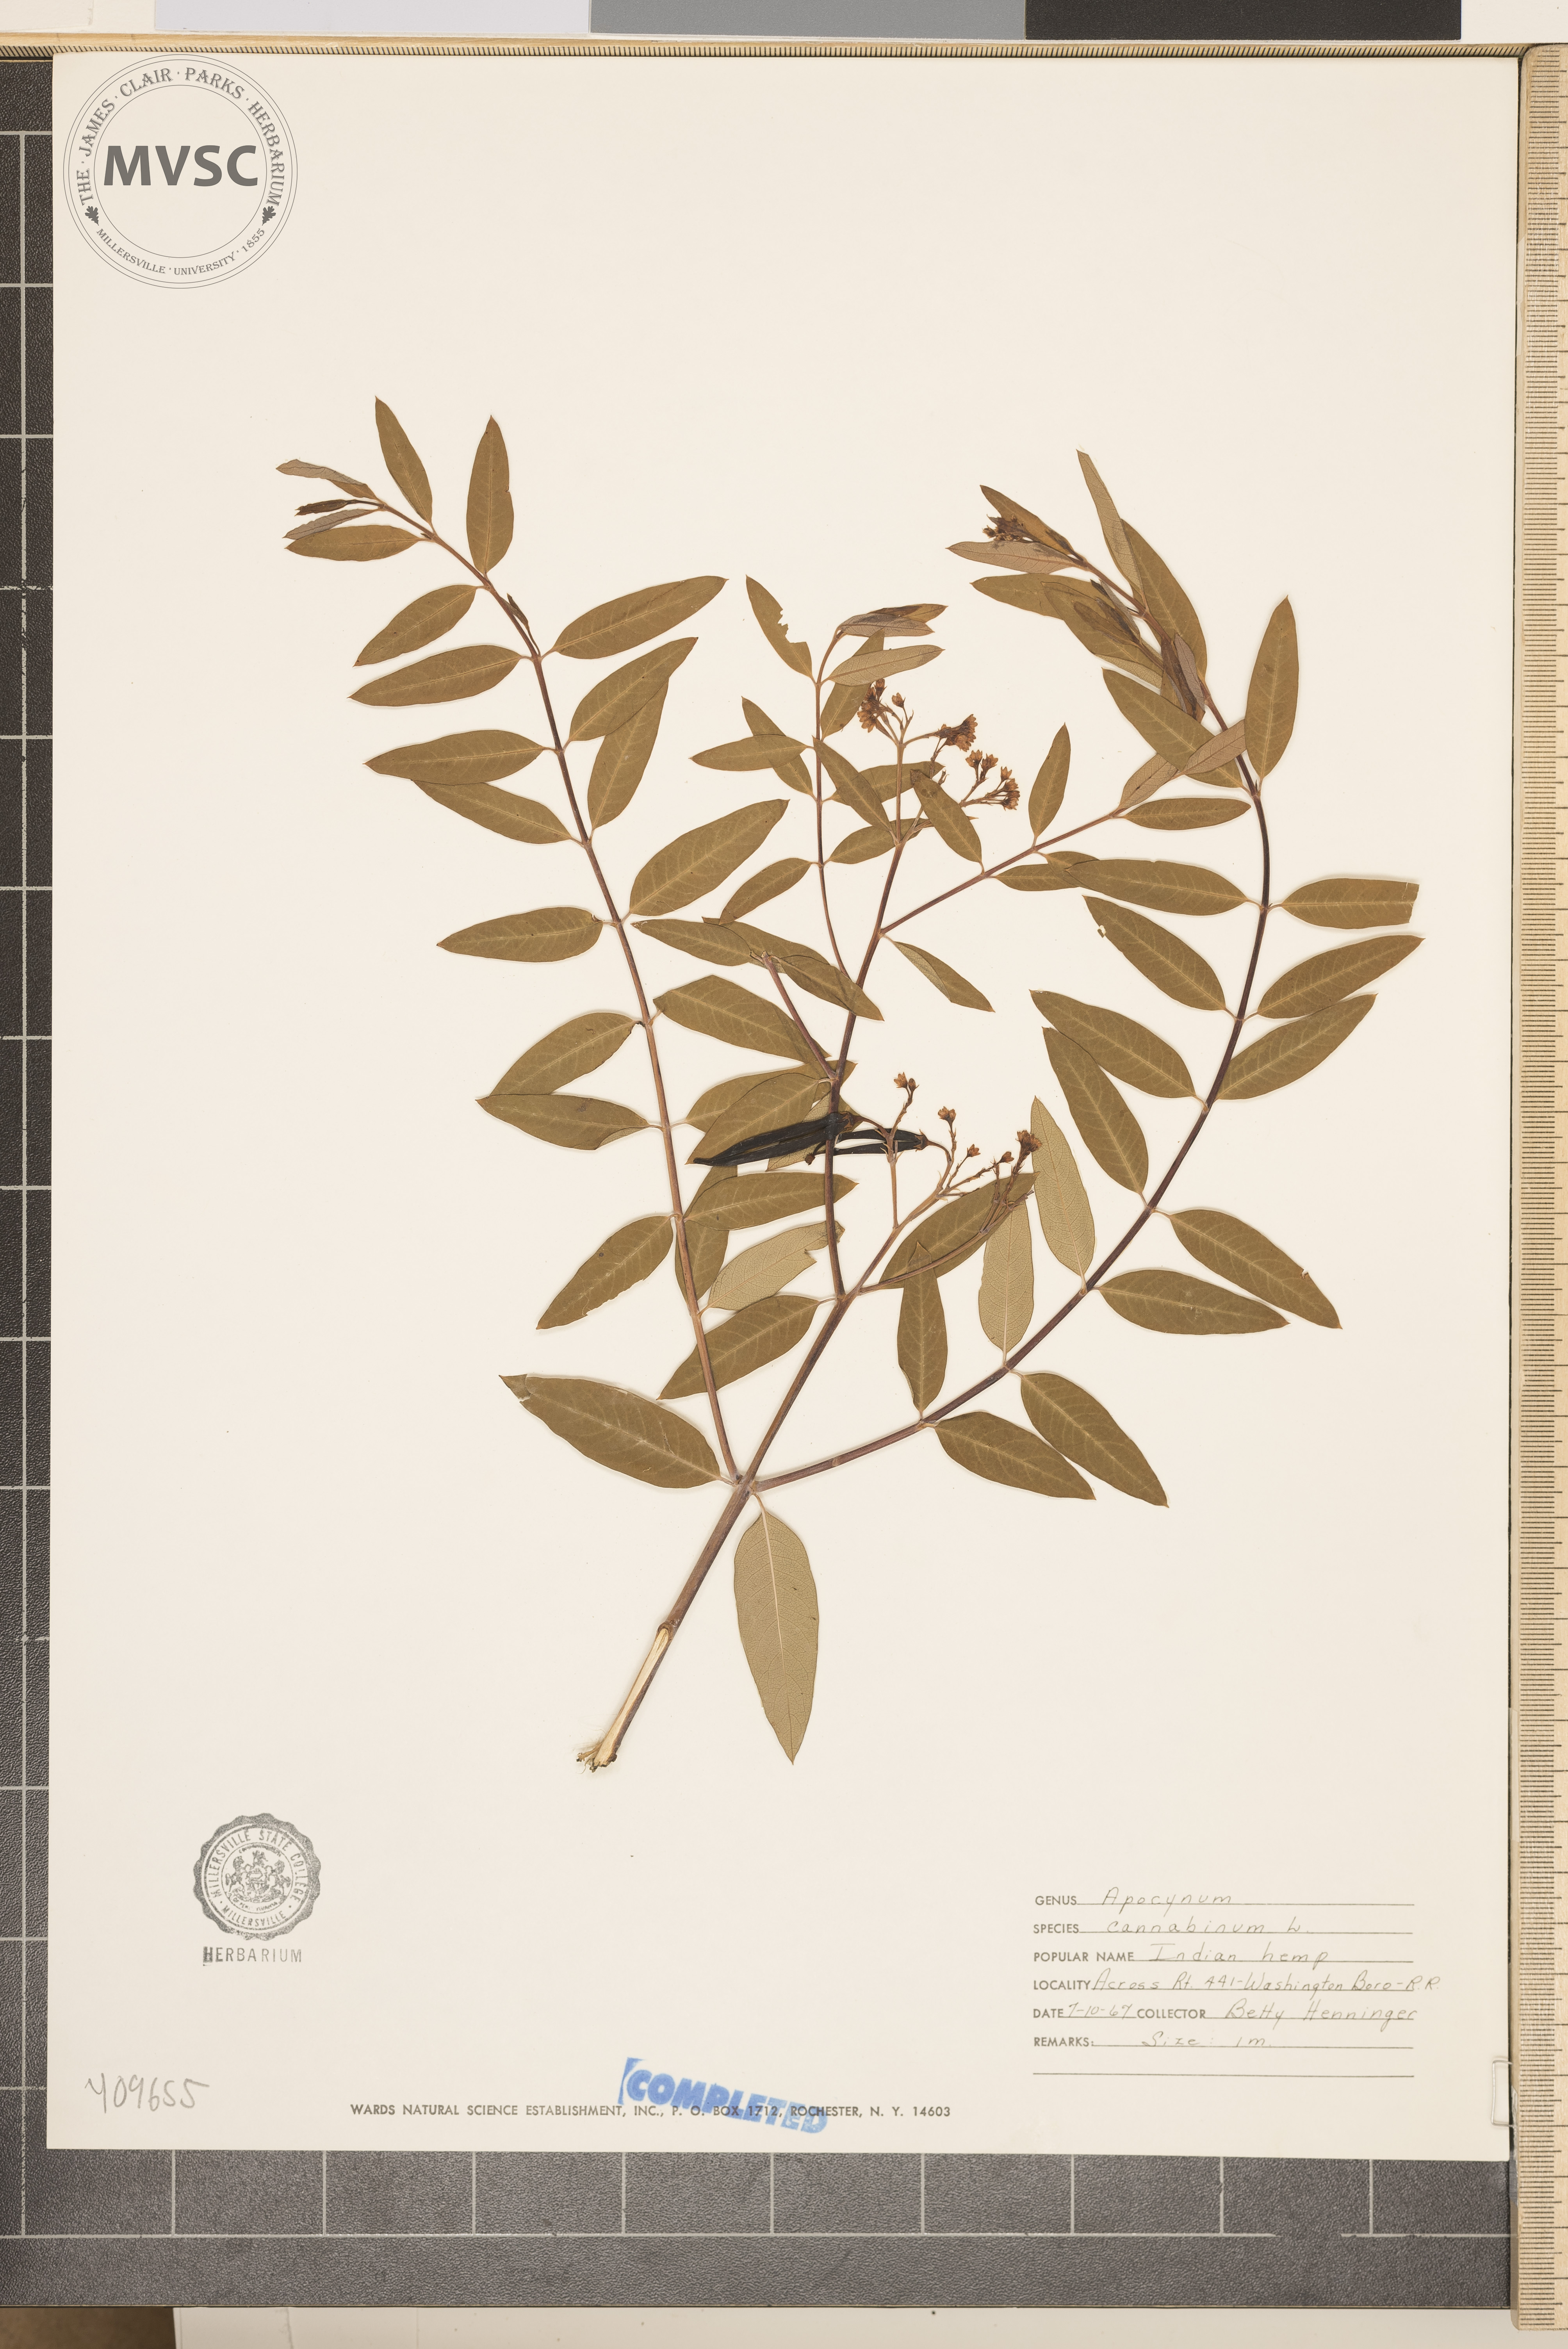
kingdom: Plantae
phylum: Tracheophyta
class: Magnoliopsida
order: Gentianales
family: Apocynaceae
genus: Apocynum
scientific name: Apocynum cannabinum
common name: Hemp dogbane
